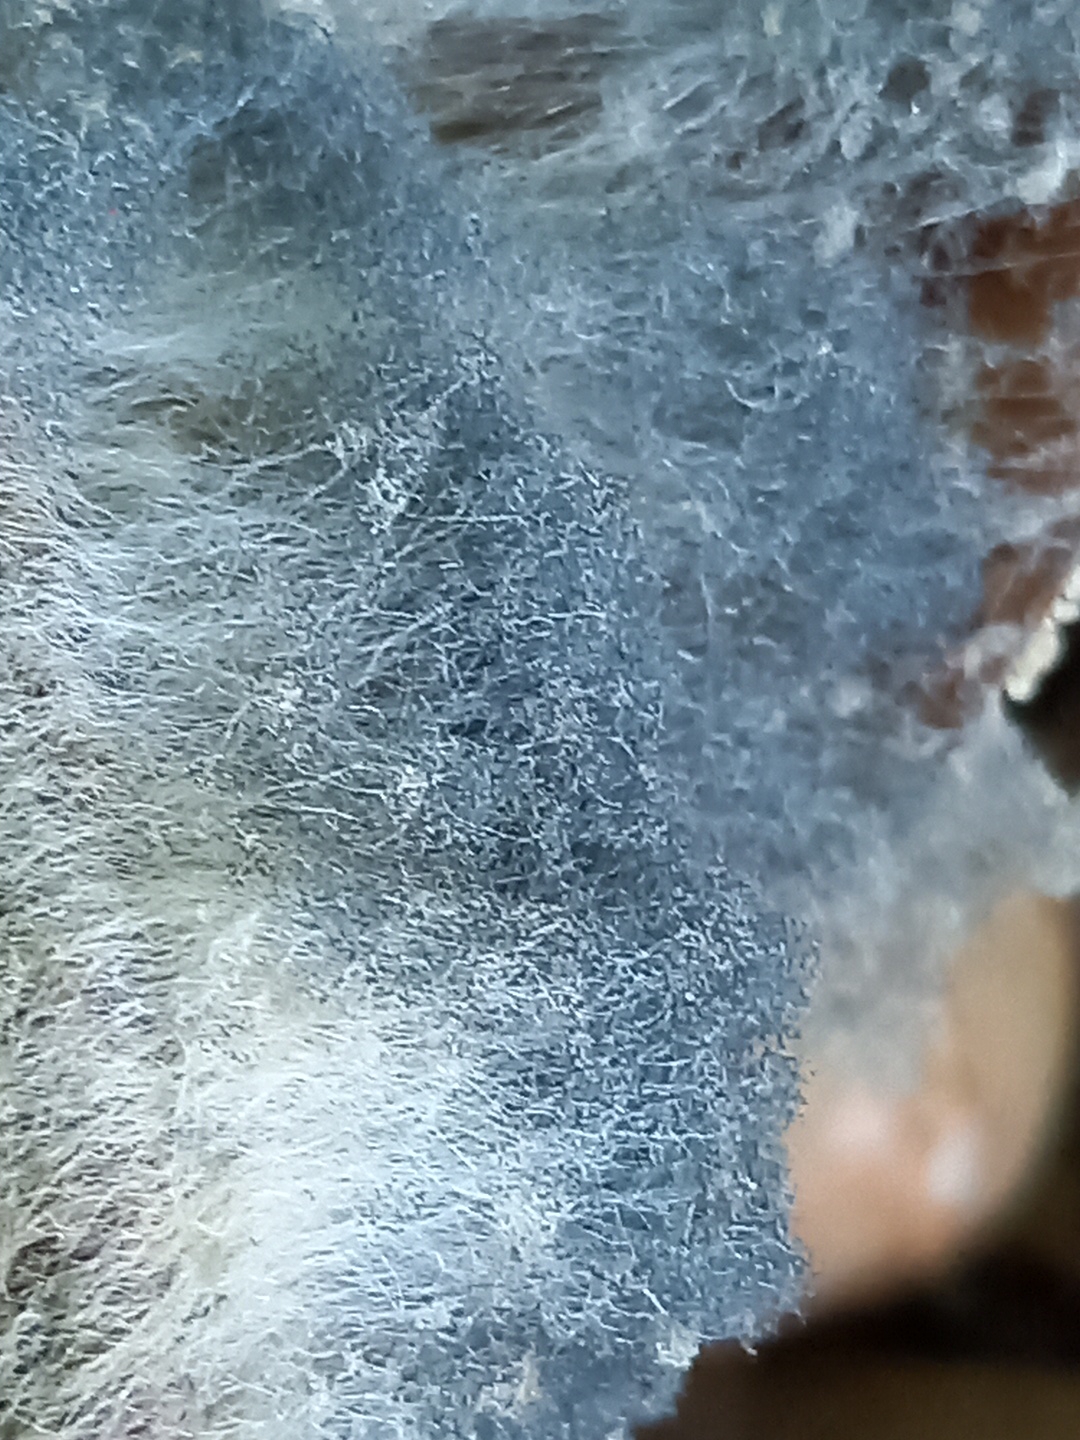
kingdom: Fungi
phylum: Mucoromycota
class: Mucoromycetes
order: Mucorales
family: Rhizopodaceae
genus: Syzygites
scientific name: Syzygites megalocarpus
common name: nissenål
